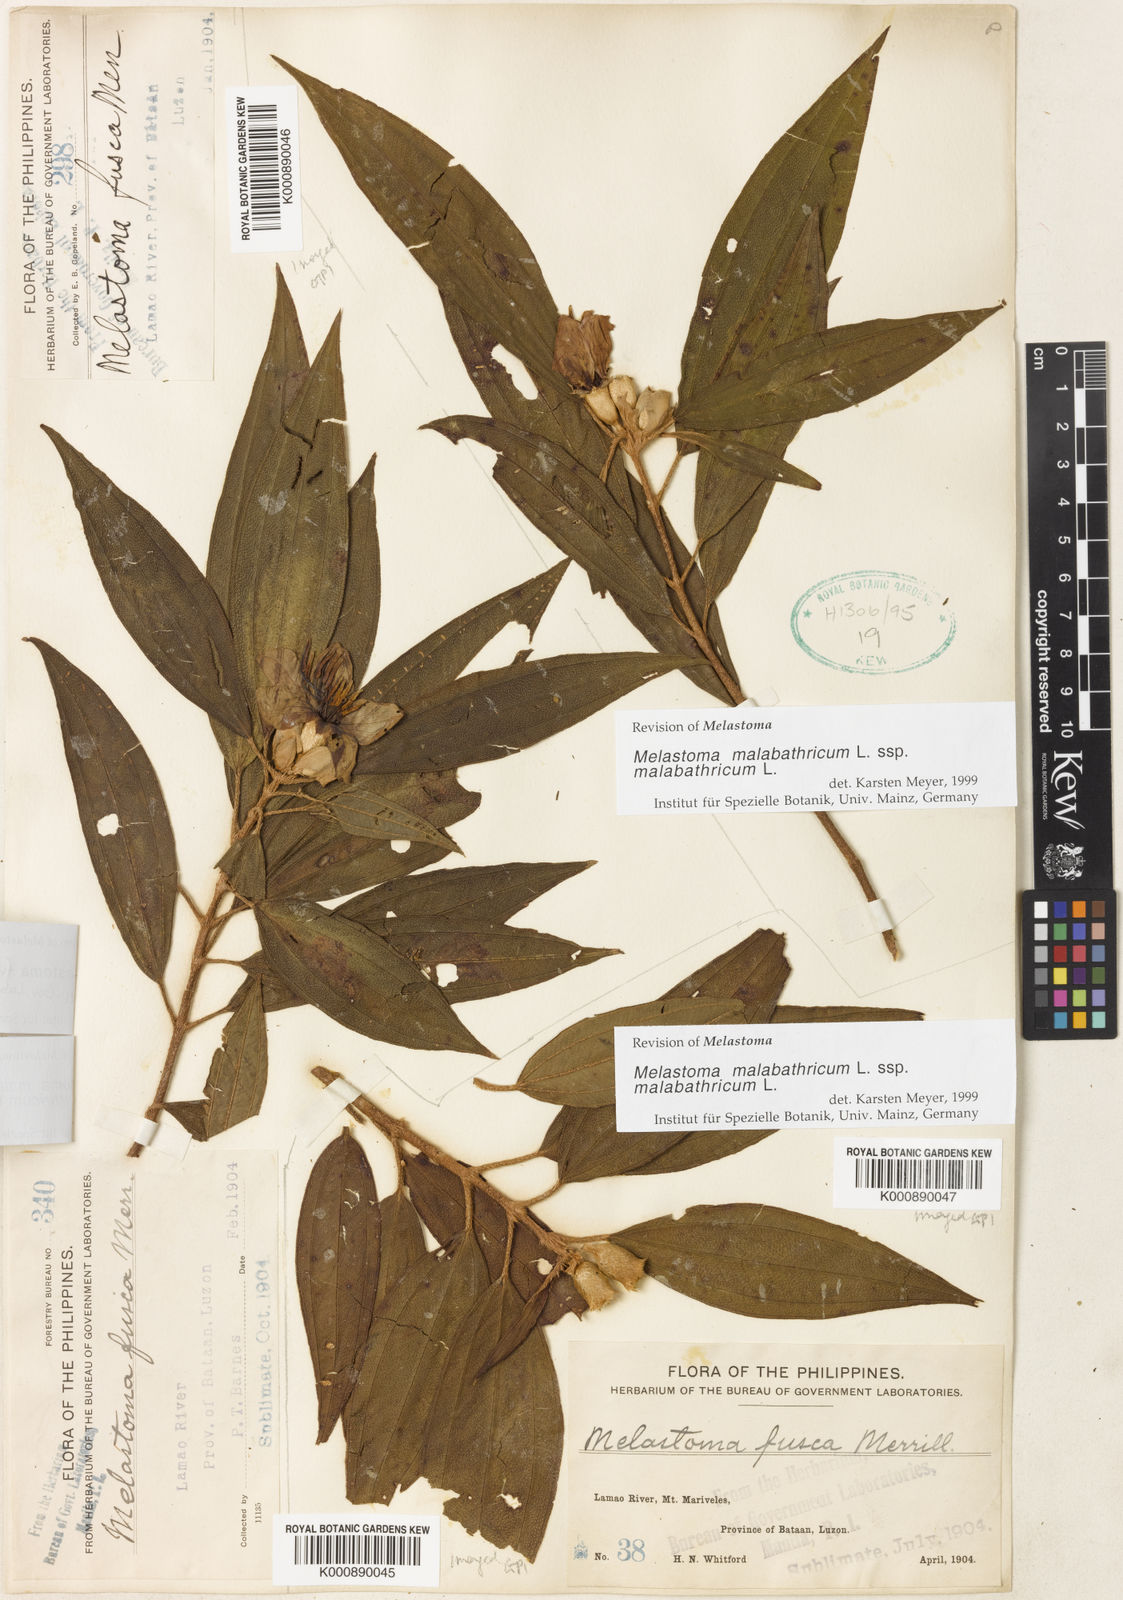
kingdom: Plantae
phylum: Tracheophyta
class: Magnoliopsida
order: Myrtales
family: Melastomataceae
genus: Melastoma
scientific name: Melastoma malabathricum
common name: Indian-rhododendron
